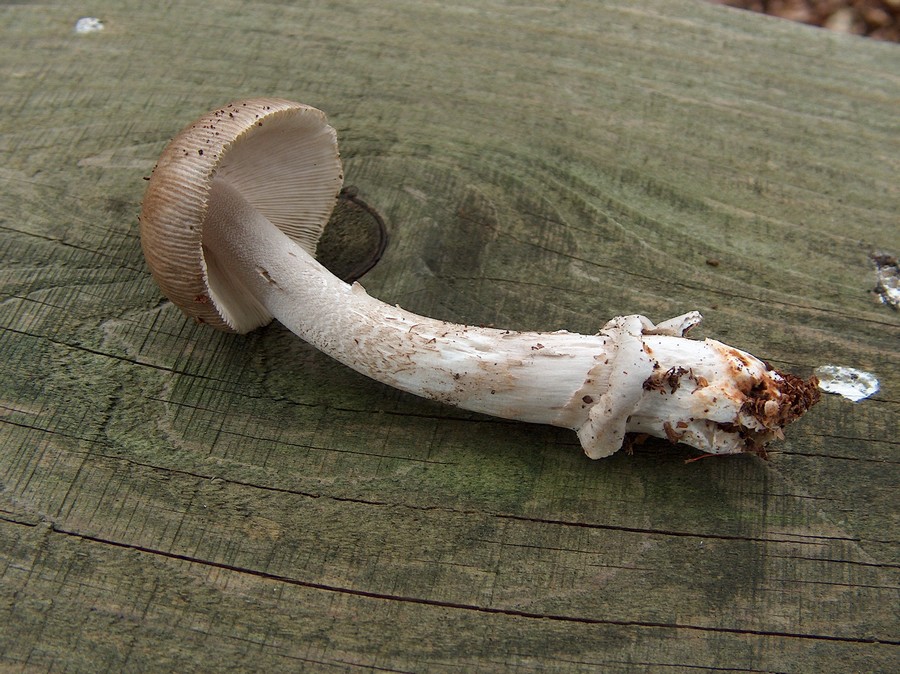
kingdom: Fungi
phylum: Basidiomycota
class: Agaricomycetes
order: Agaricales
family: Amanitaceae
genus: Amanita
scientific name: Amanita submembranacea
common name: gråspættet kam-fluesvamp
